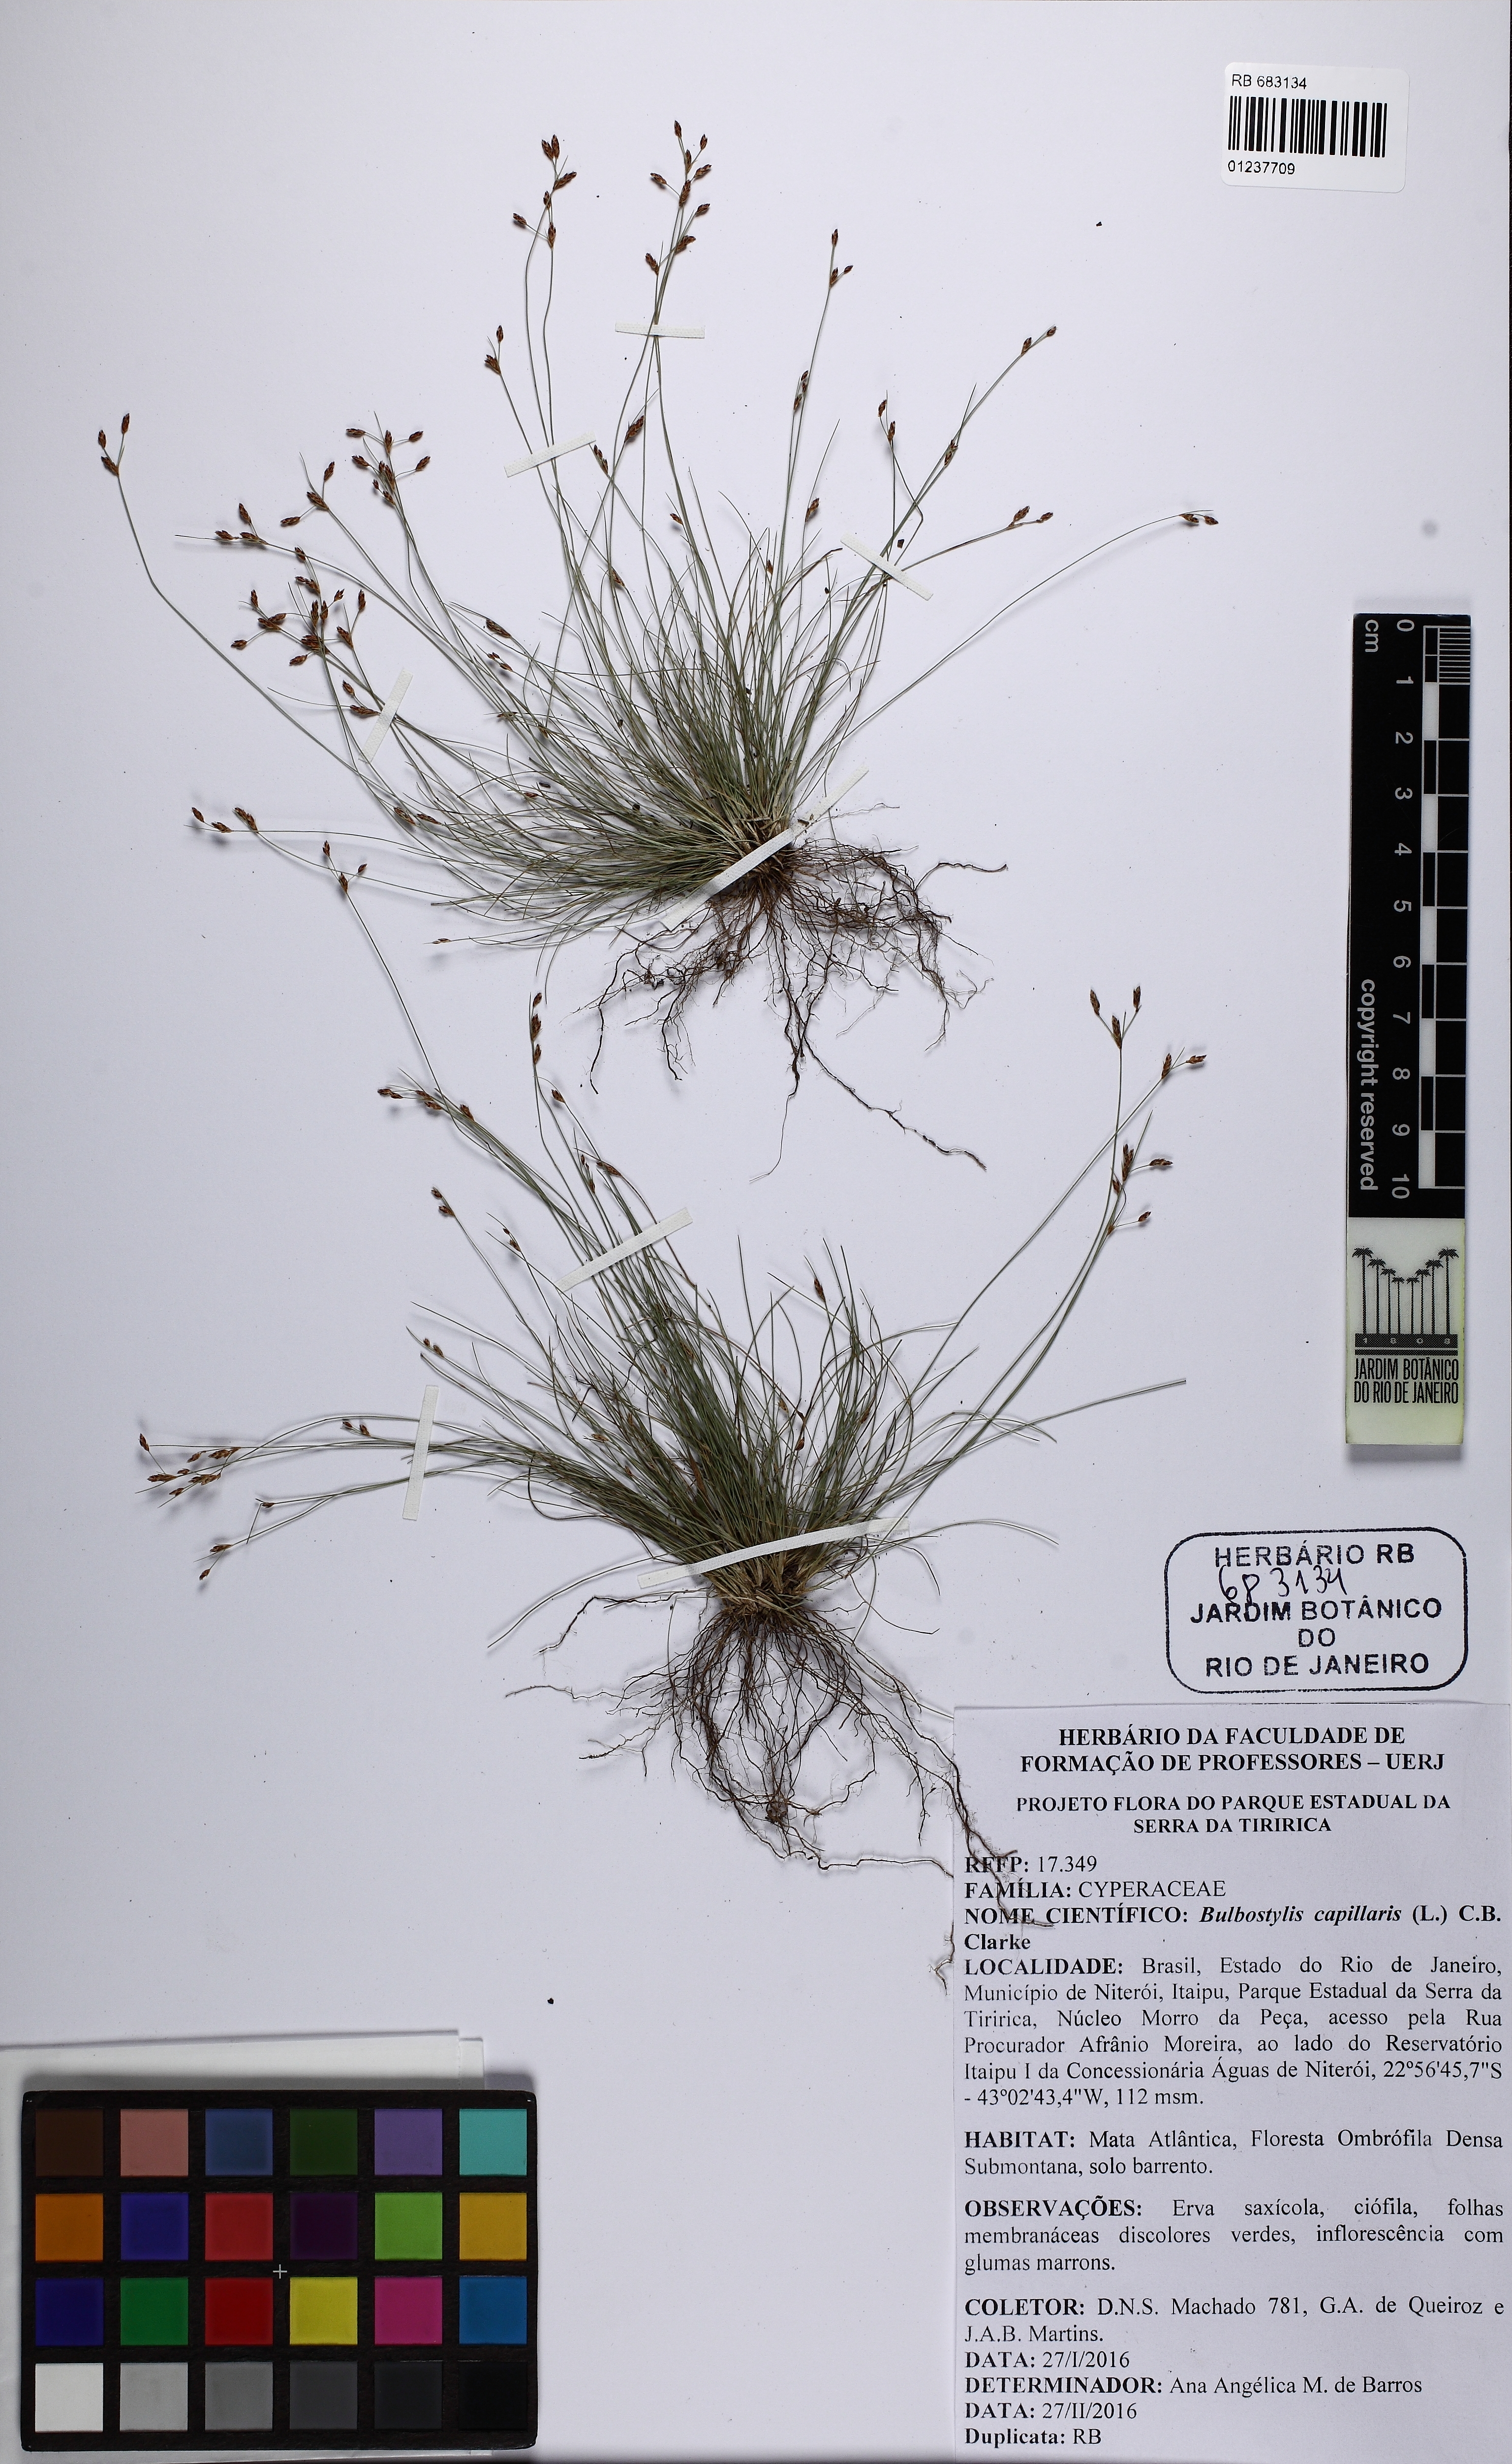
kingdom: Plantae
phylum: Tracheophyta
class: Liliopsida
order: Poales
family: Cyperaceae
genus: Bulbostylis
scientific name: Bulbostylis capillaris
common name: Densetuft hairsedge
